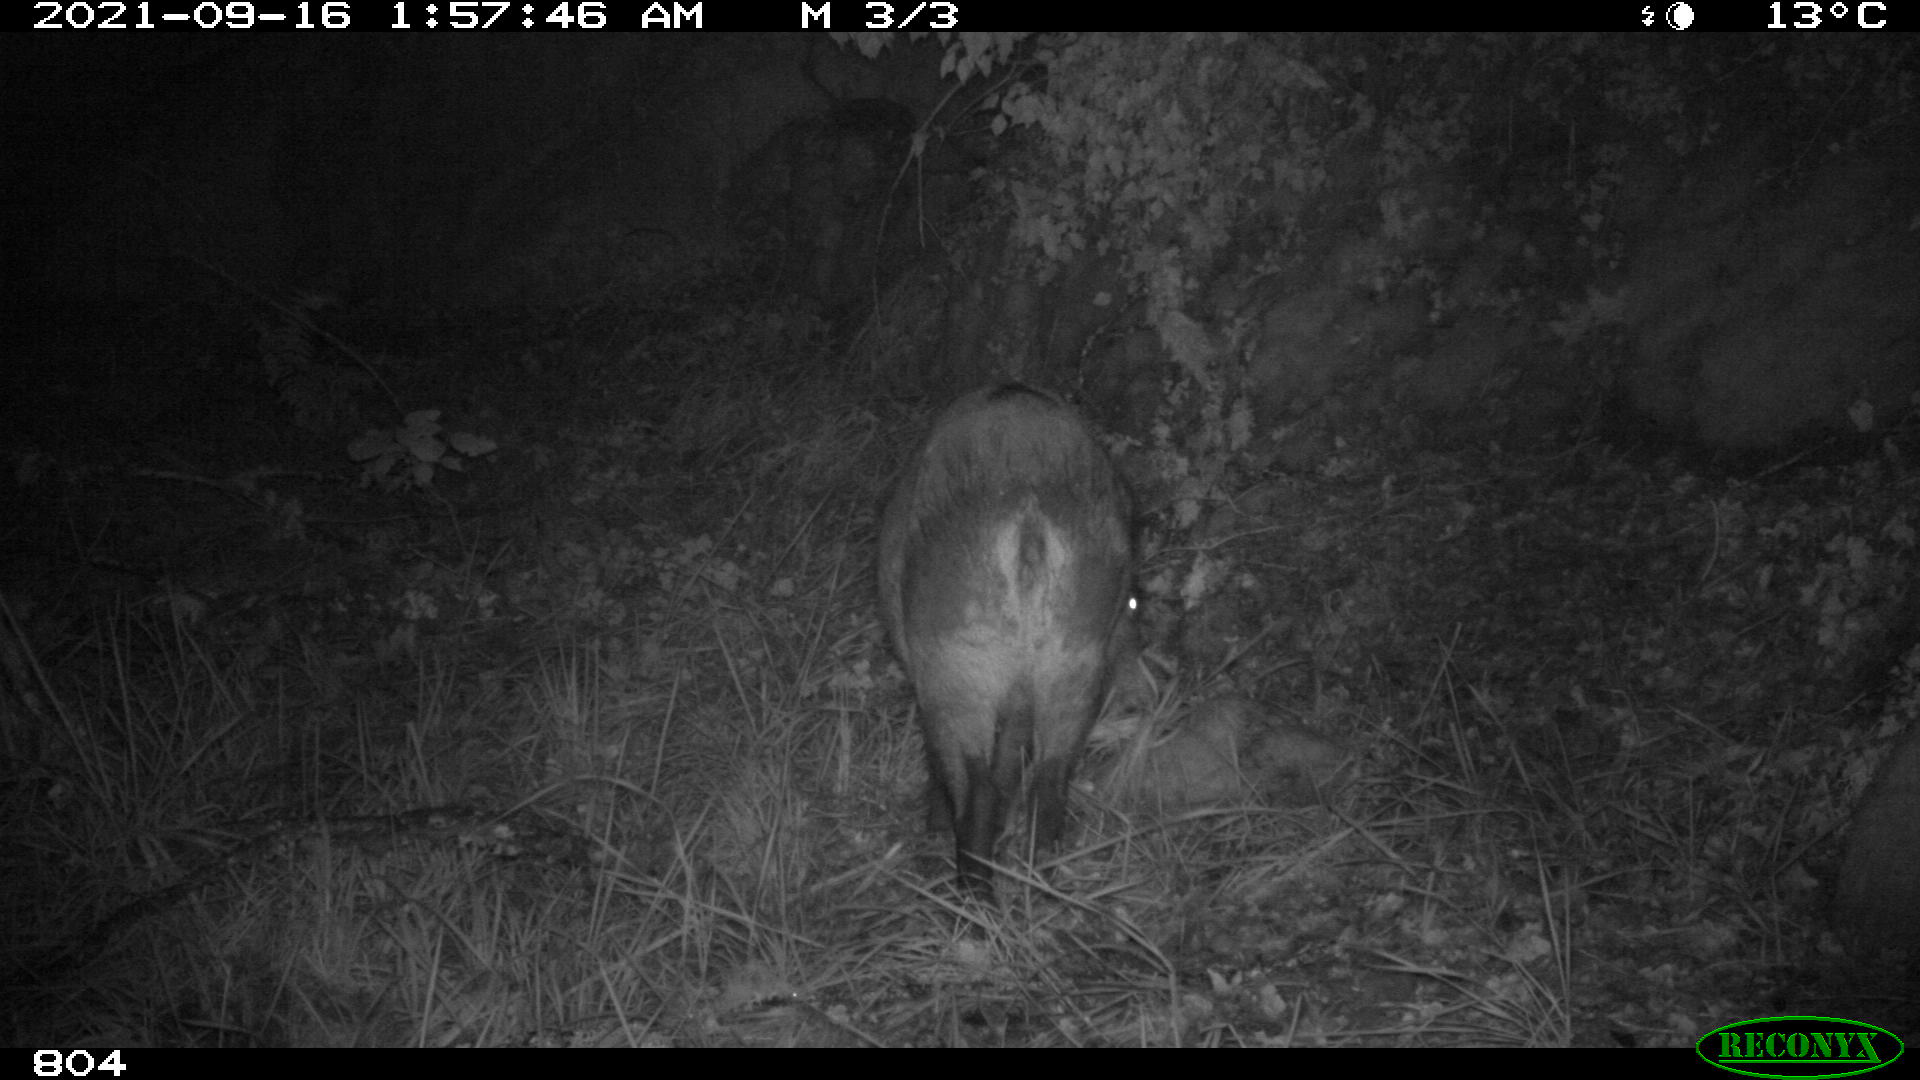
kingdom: Animalia
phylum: Chordata
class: Mammalia
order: Artiodactyla
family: Suidae
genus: Sus
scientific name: Sus scrofa
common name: Wild boar
